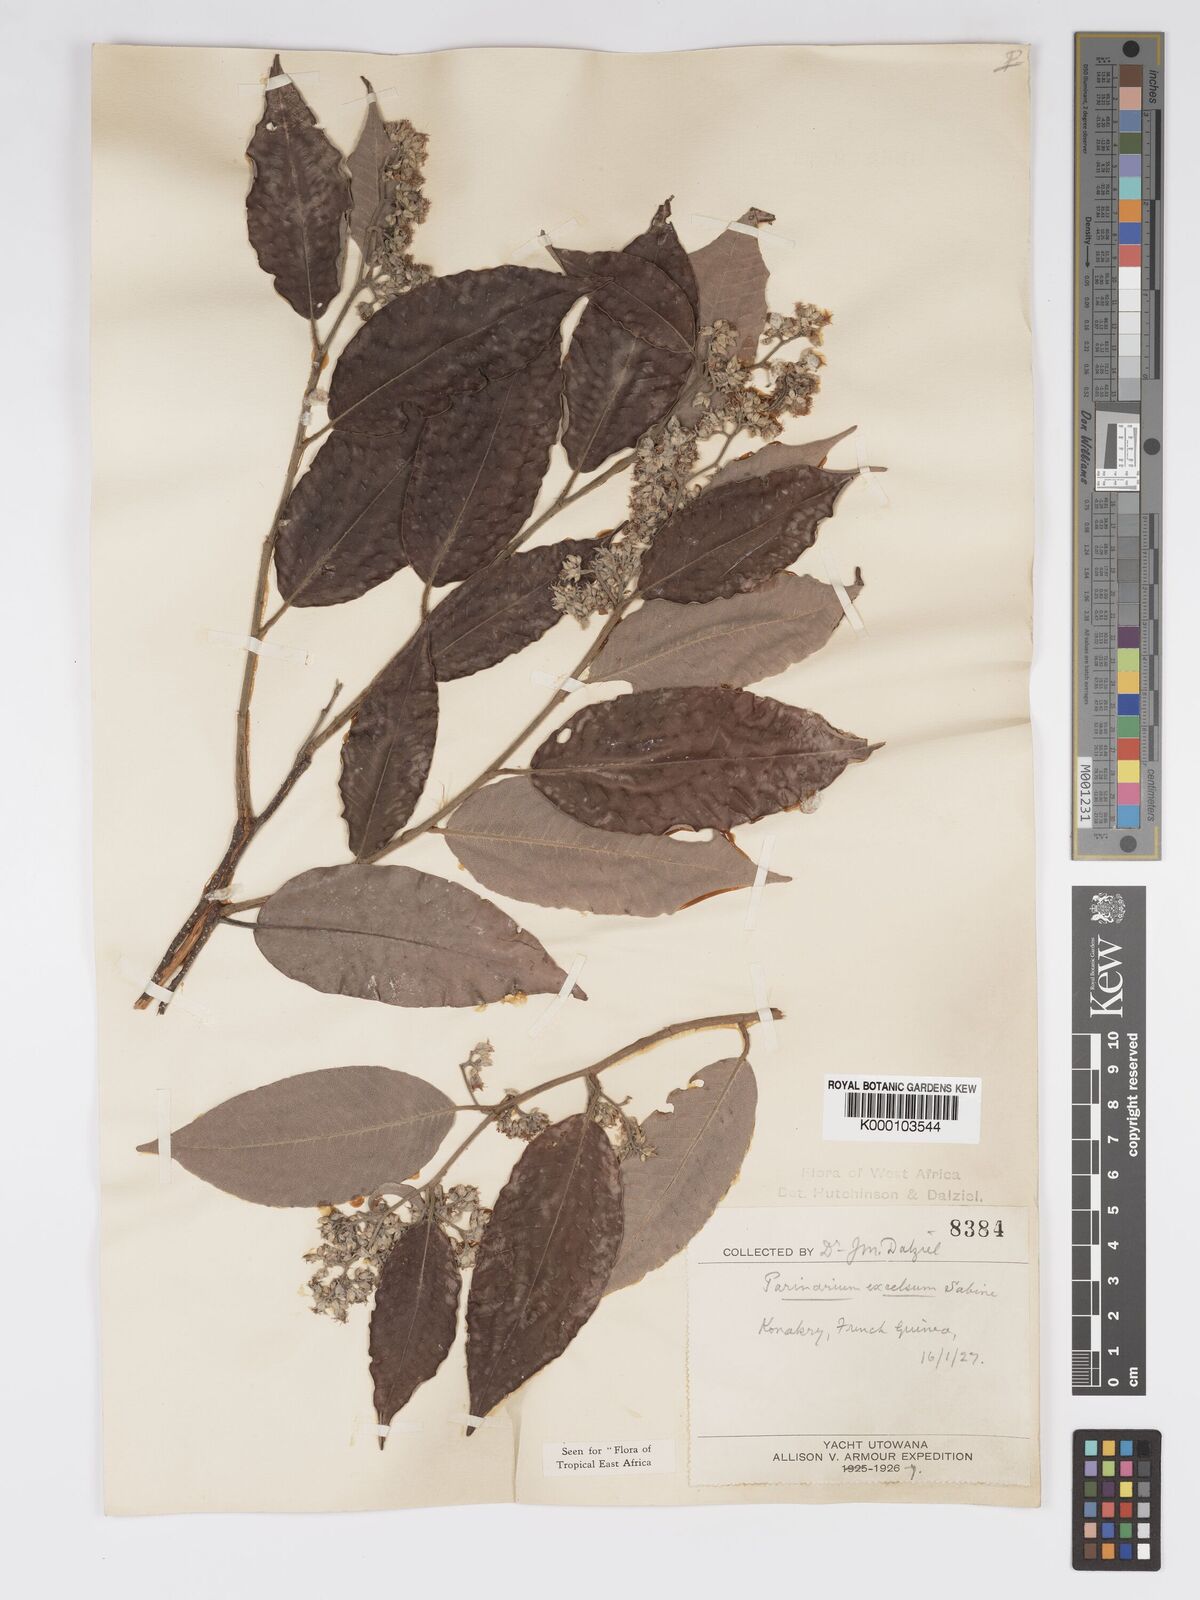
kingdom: Plantae
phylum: Tracheophyta
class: Magnoliopsida
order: Malpighiales
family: Chrysobalanaceae
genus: Parinari
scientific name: Parinari excelsa
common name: Guinea-plum
